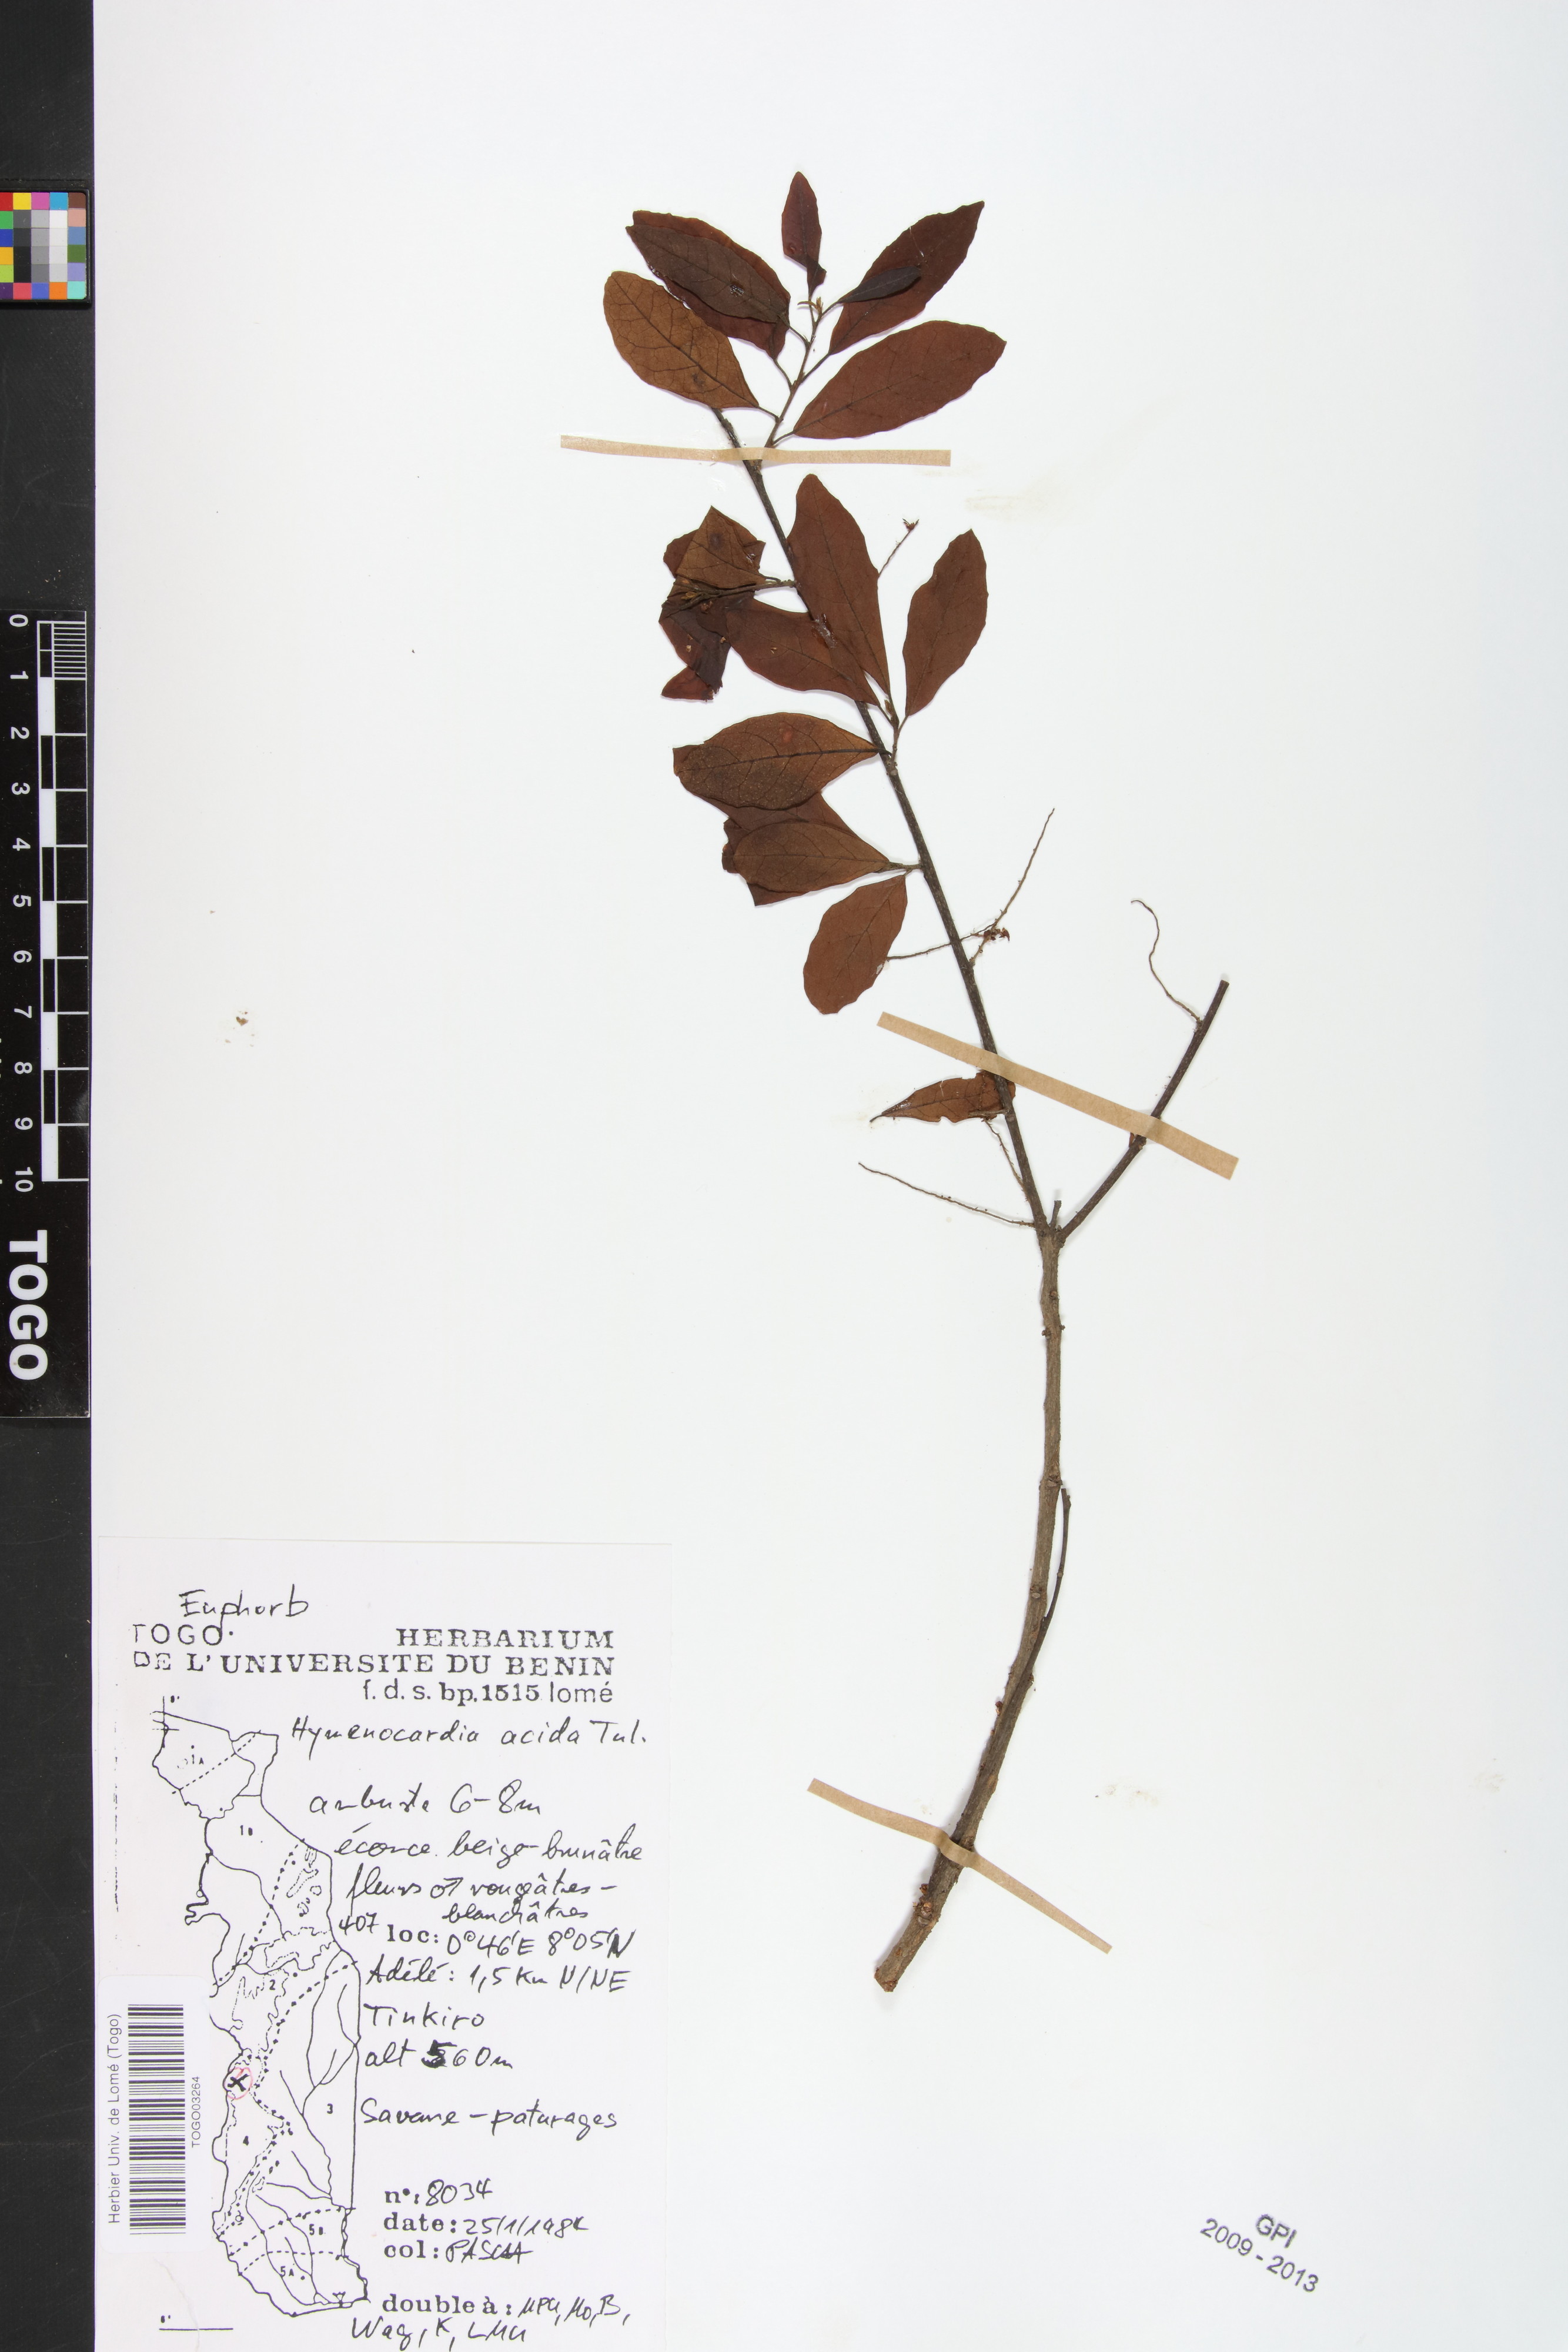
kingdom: Plantae
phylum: Tracheophyta
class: Magnoliopsida
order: Malpighiales
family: Phyllanthaceae
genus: Hymenocardia
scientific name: Hymenocardia acida
